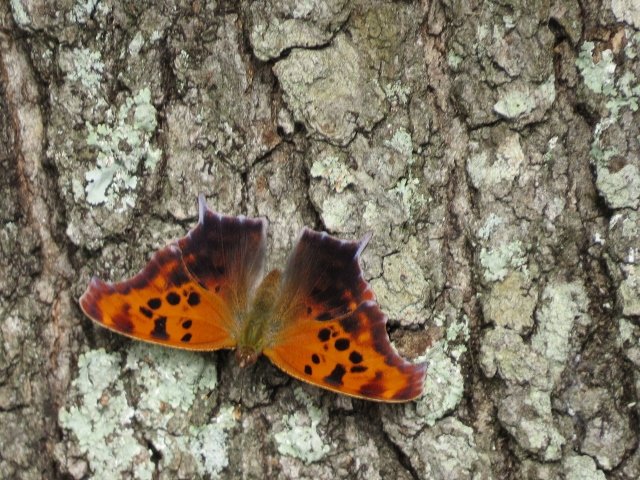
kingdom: Animalia
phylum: Arthropoda
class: Insecta
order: Lepidoptera
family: Nymphalidae
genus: Polygonia
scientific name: Polygonia comma
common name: Eastern Comma
